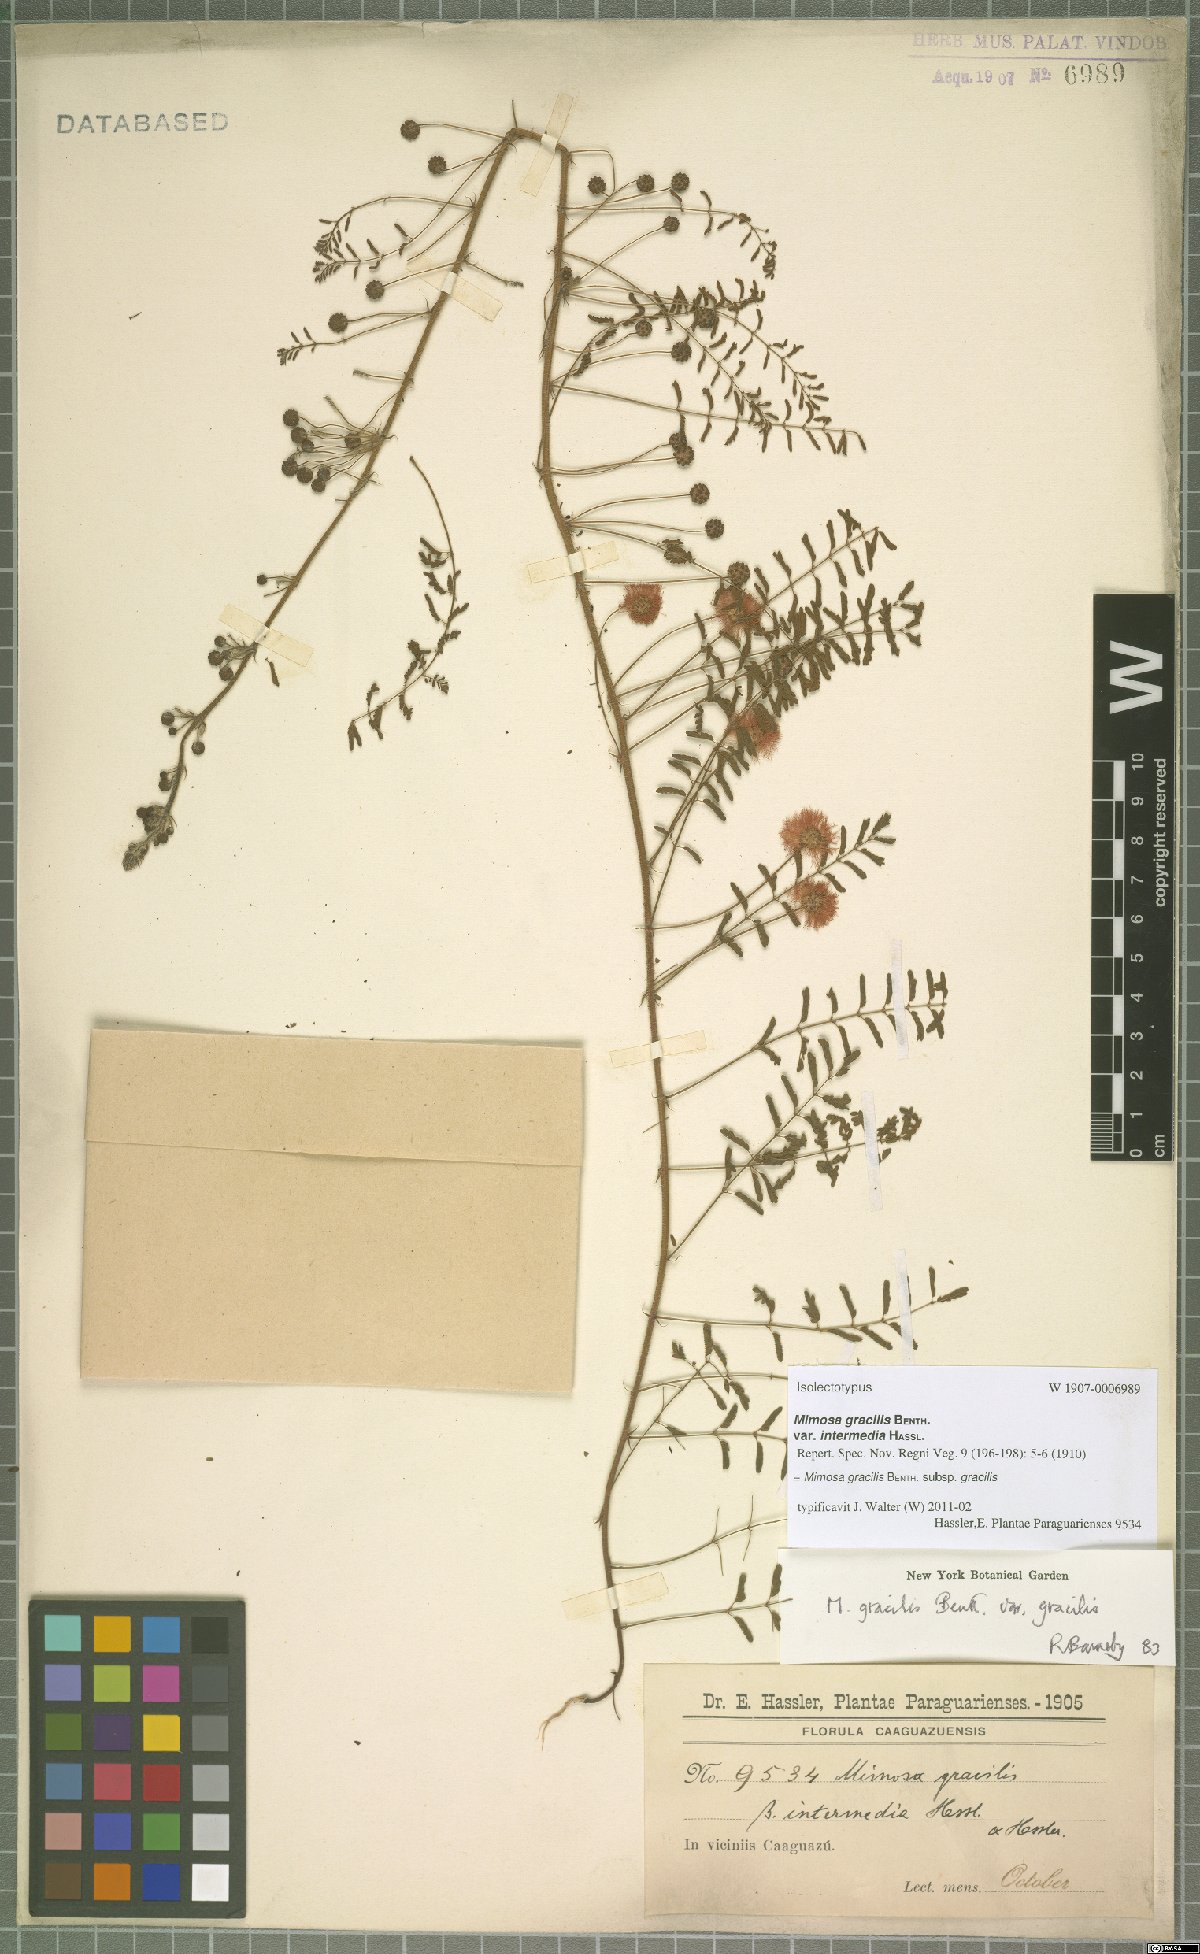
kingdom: Plantae
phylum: Tracheophyta
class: Magnoliopsida
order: Fabales
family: Fabaceae
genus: Mimosa
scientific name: Mimosa gracilis
